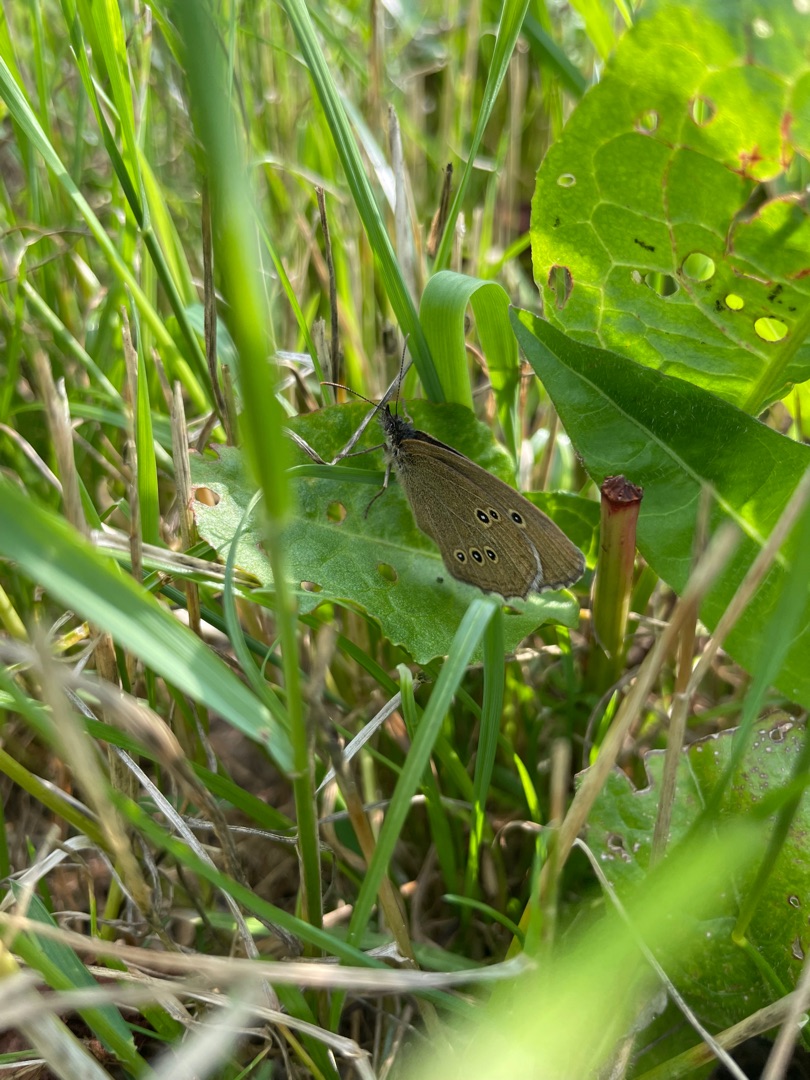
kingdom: Animalia
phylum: Arthropoda
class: Insecta
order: Lepidoptera
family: Nymphalidae
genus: Aphantopus
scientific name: Aphantopus hyperantus
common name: Engrandøje
